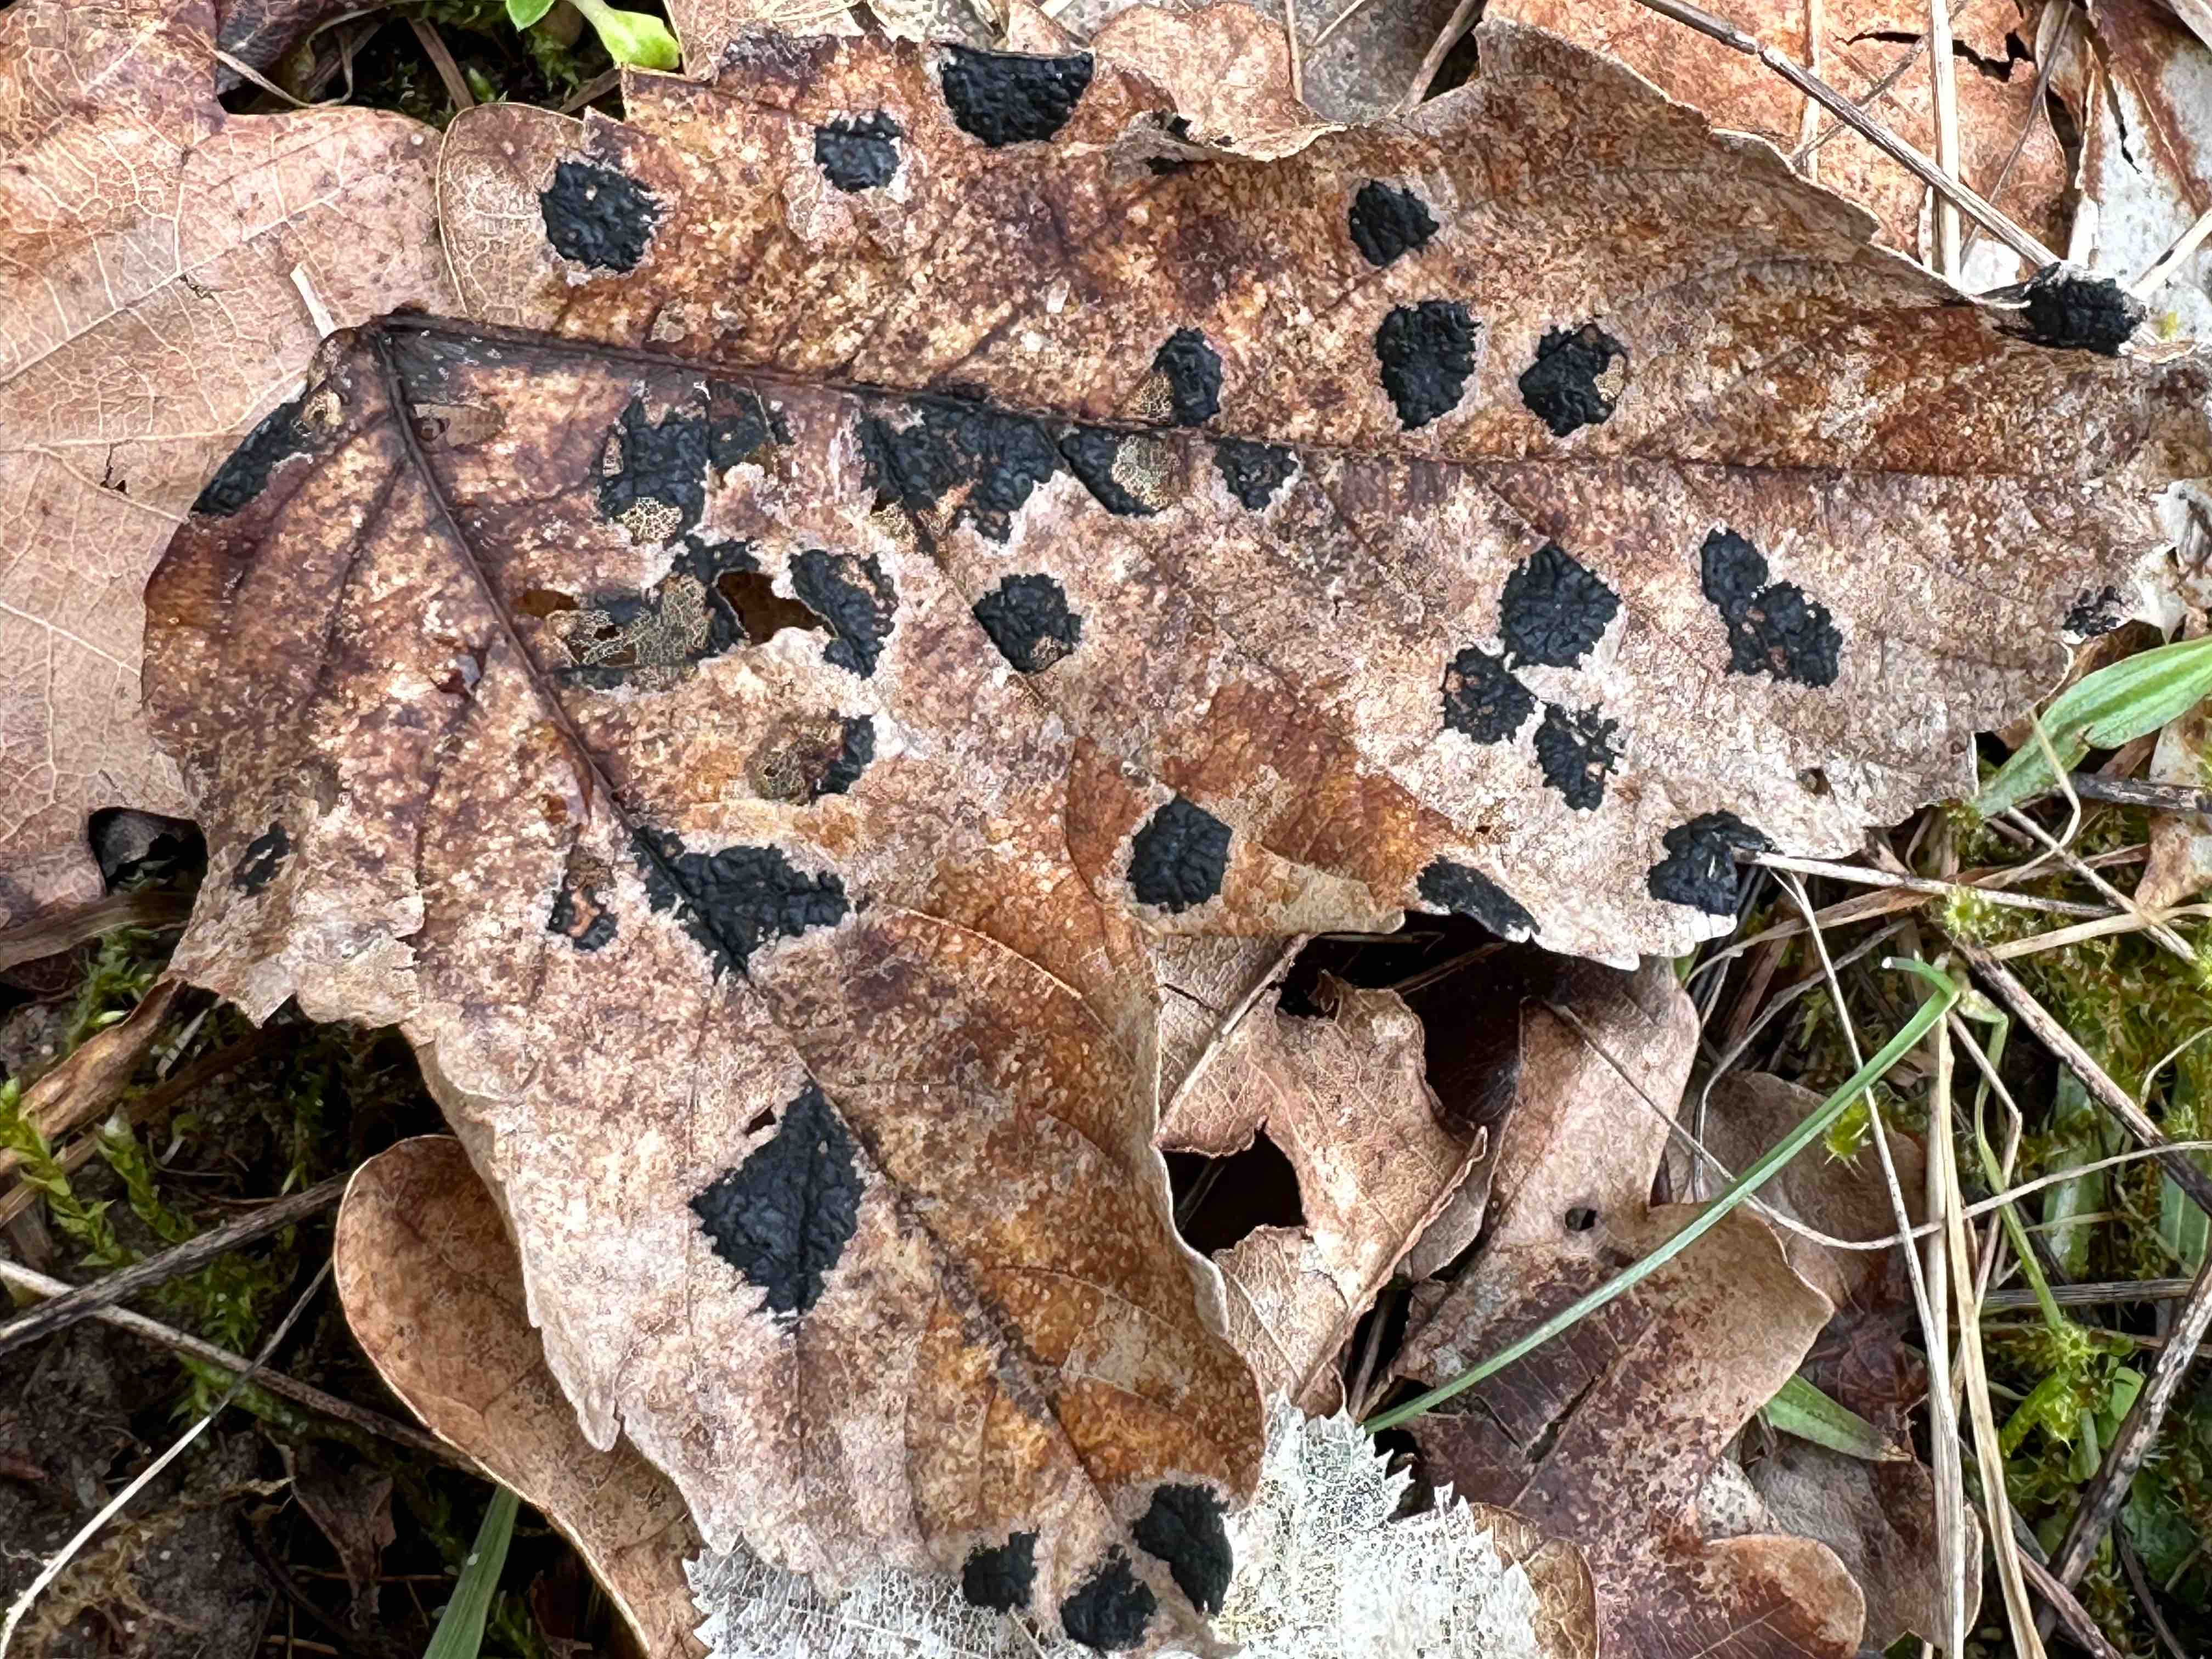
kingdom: Fungi
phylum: Ascomycota
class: Leotiomycetes
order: Rhytismatales
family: Rhytismataceae
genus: Rhytisma
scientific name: Rhytisma acerinum
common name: ahorn-rynkeplet
